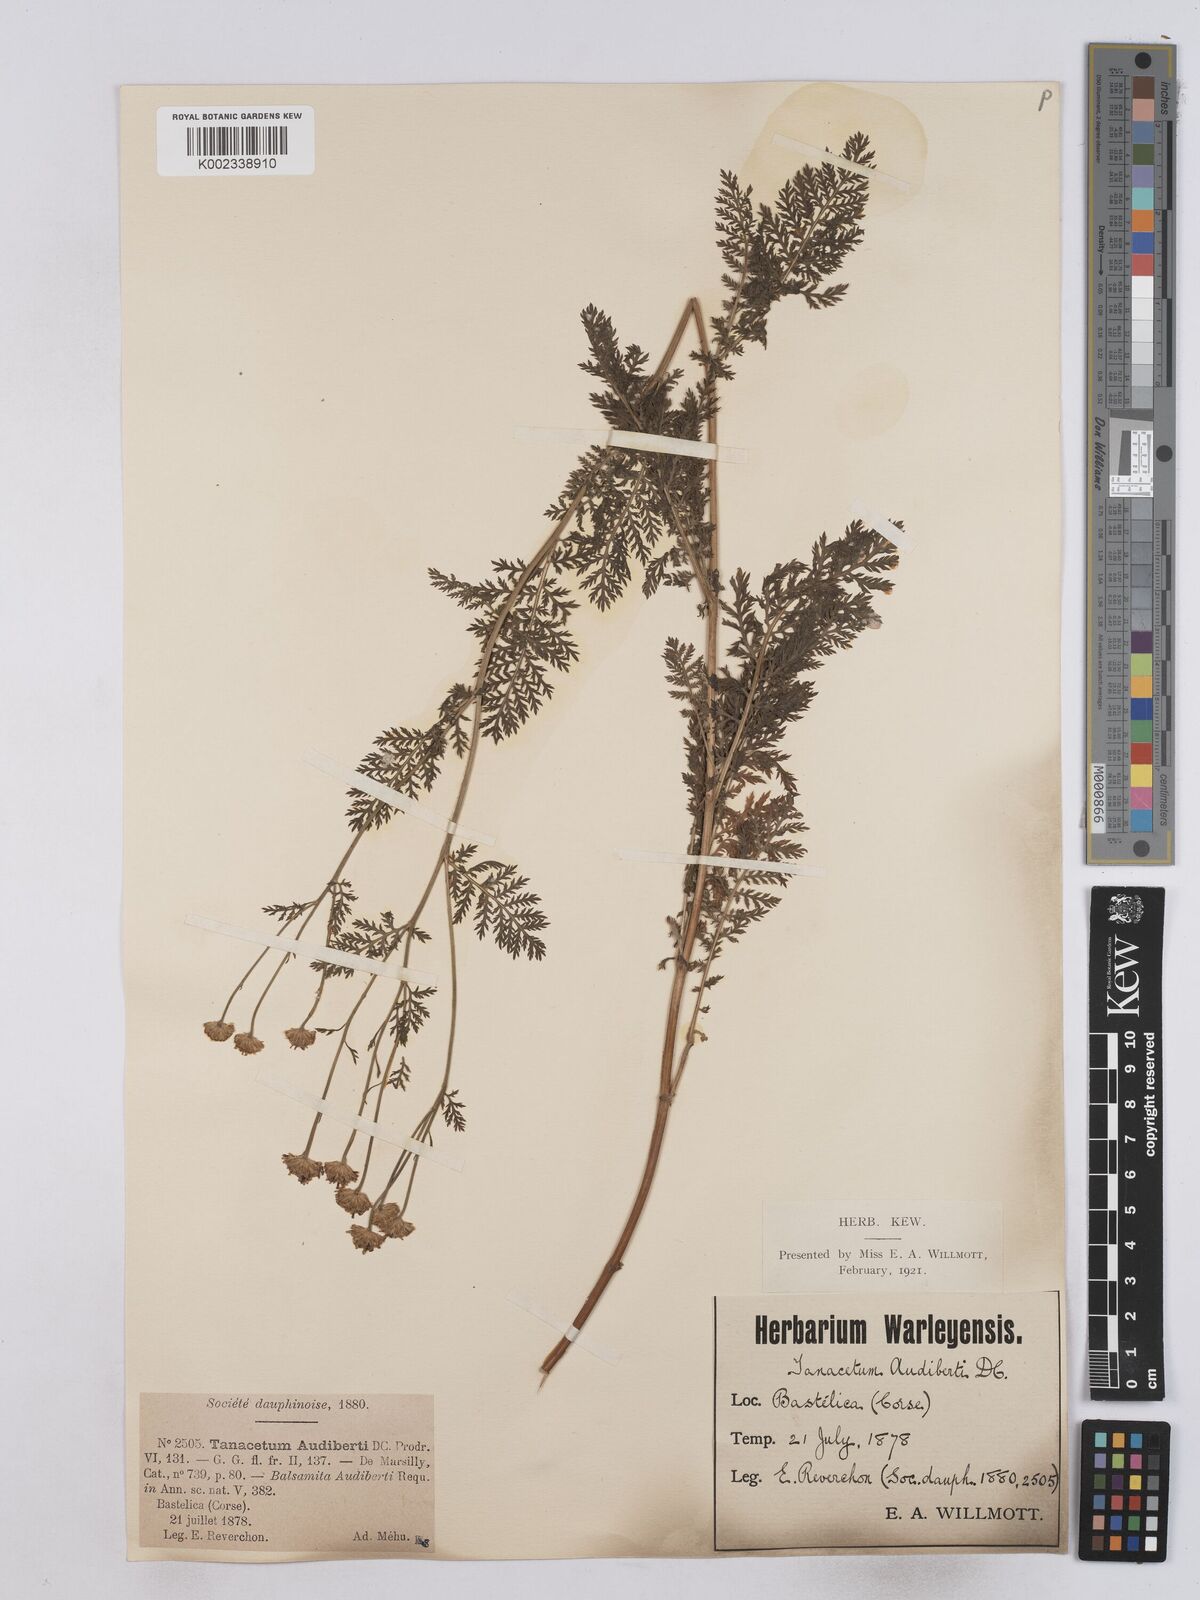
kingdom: Plantae
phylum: Tracheophyta
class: Magnoliopsida
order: Asterales
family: Asteraceae
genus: Tanacetum
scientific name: Tanacetum audibertii
